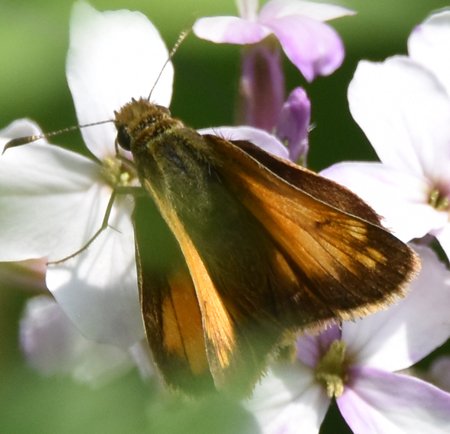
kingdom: Animalia
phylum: Arthropoda
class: Insecta
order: Lepidoptera
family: Hesperiidae
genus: Lon
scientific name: Lon hobomok
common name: Hobomok Skipper
